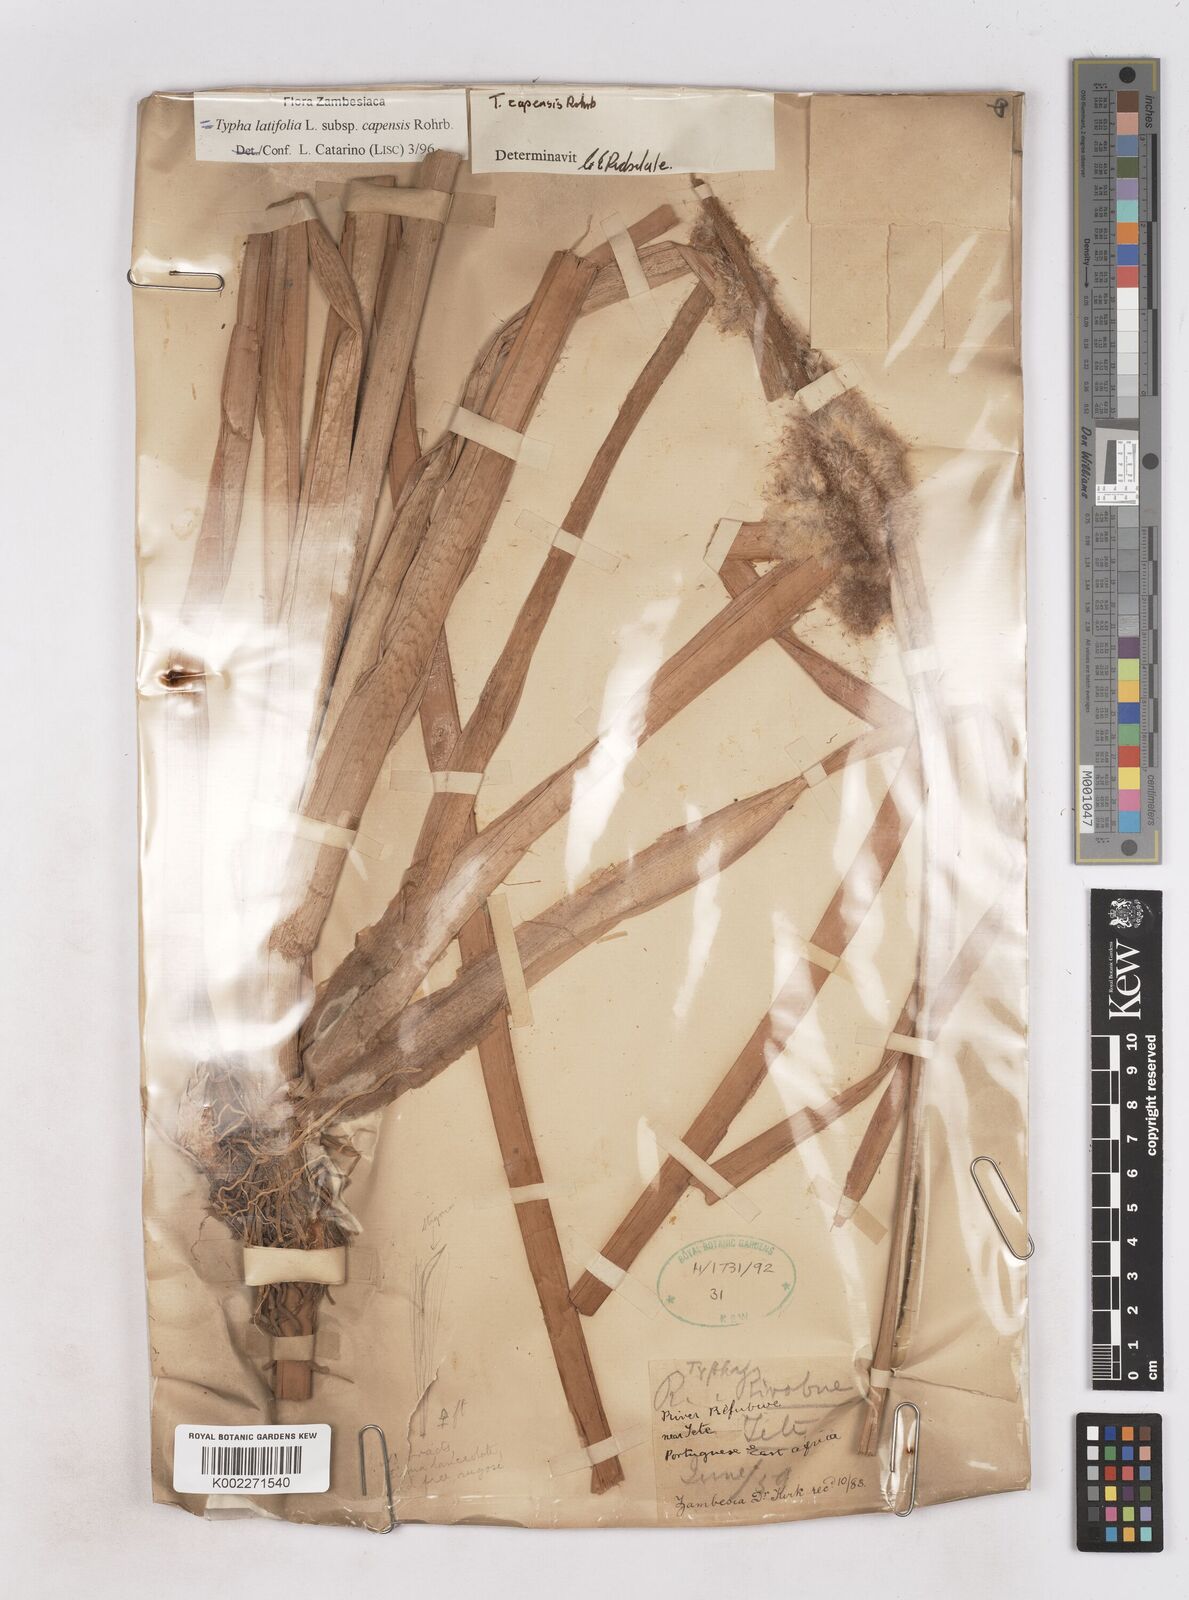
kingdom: Plantae
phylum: Tracheophyta
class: Liliopsida
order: Poales
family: Typhaceae
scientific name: Typhaceae
